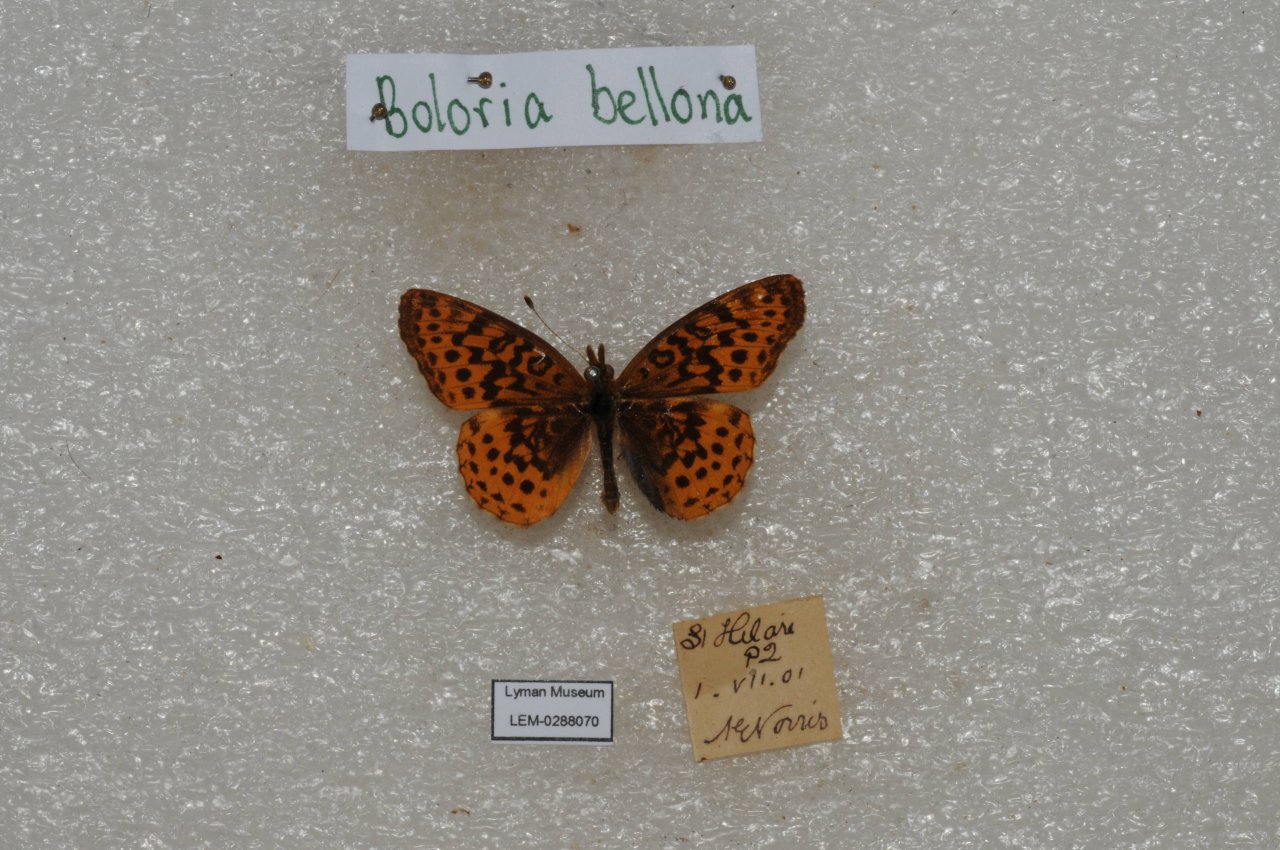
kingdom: Animalia
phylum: Arthropoda
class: Insecta
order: Lepidoptera
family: Nymphalidae
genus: Clossiana
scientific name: Clossiana toddi
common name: Meadow Fritillary
